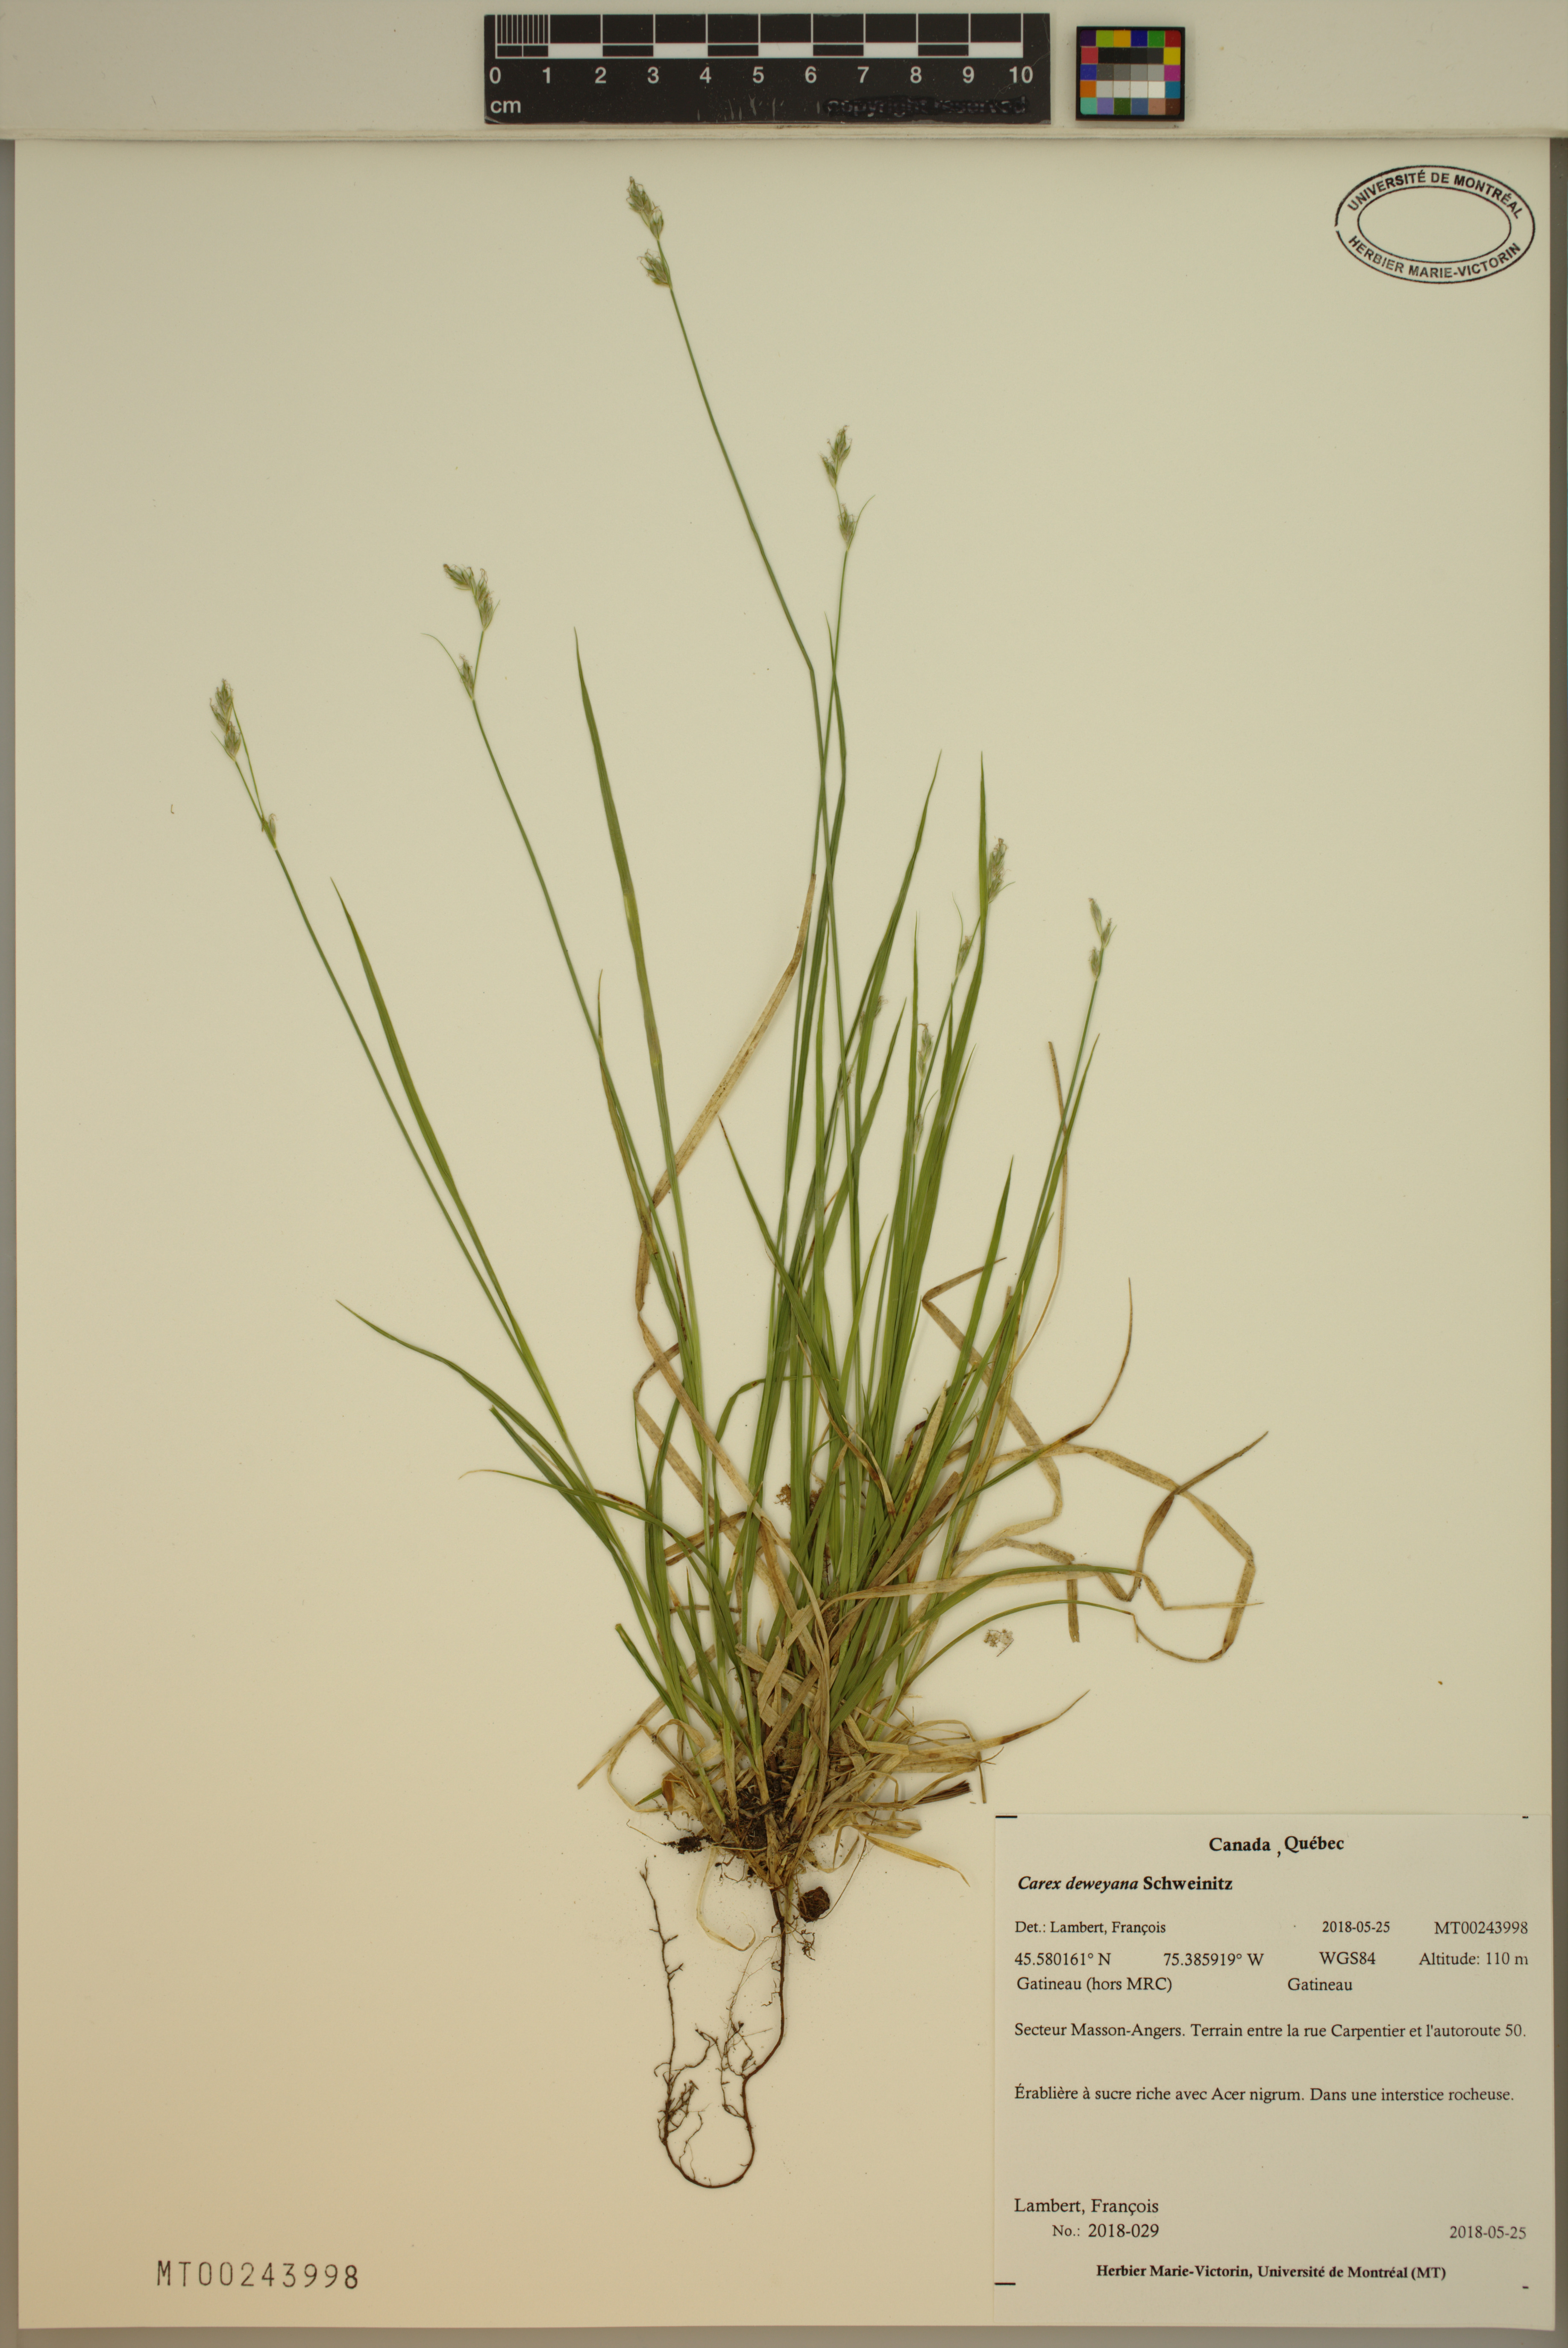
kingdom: Plantae
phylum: Tracheophyta
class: Liliopsida
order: Poales
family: Cyperaceae
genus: Carex
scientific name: Carex deweyana
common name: Dewey's sedge
